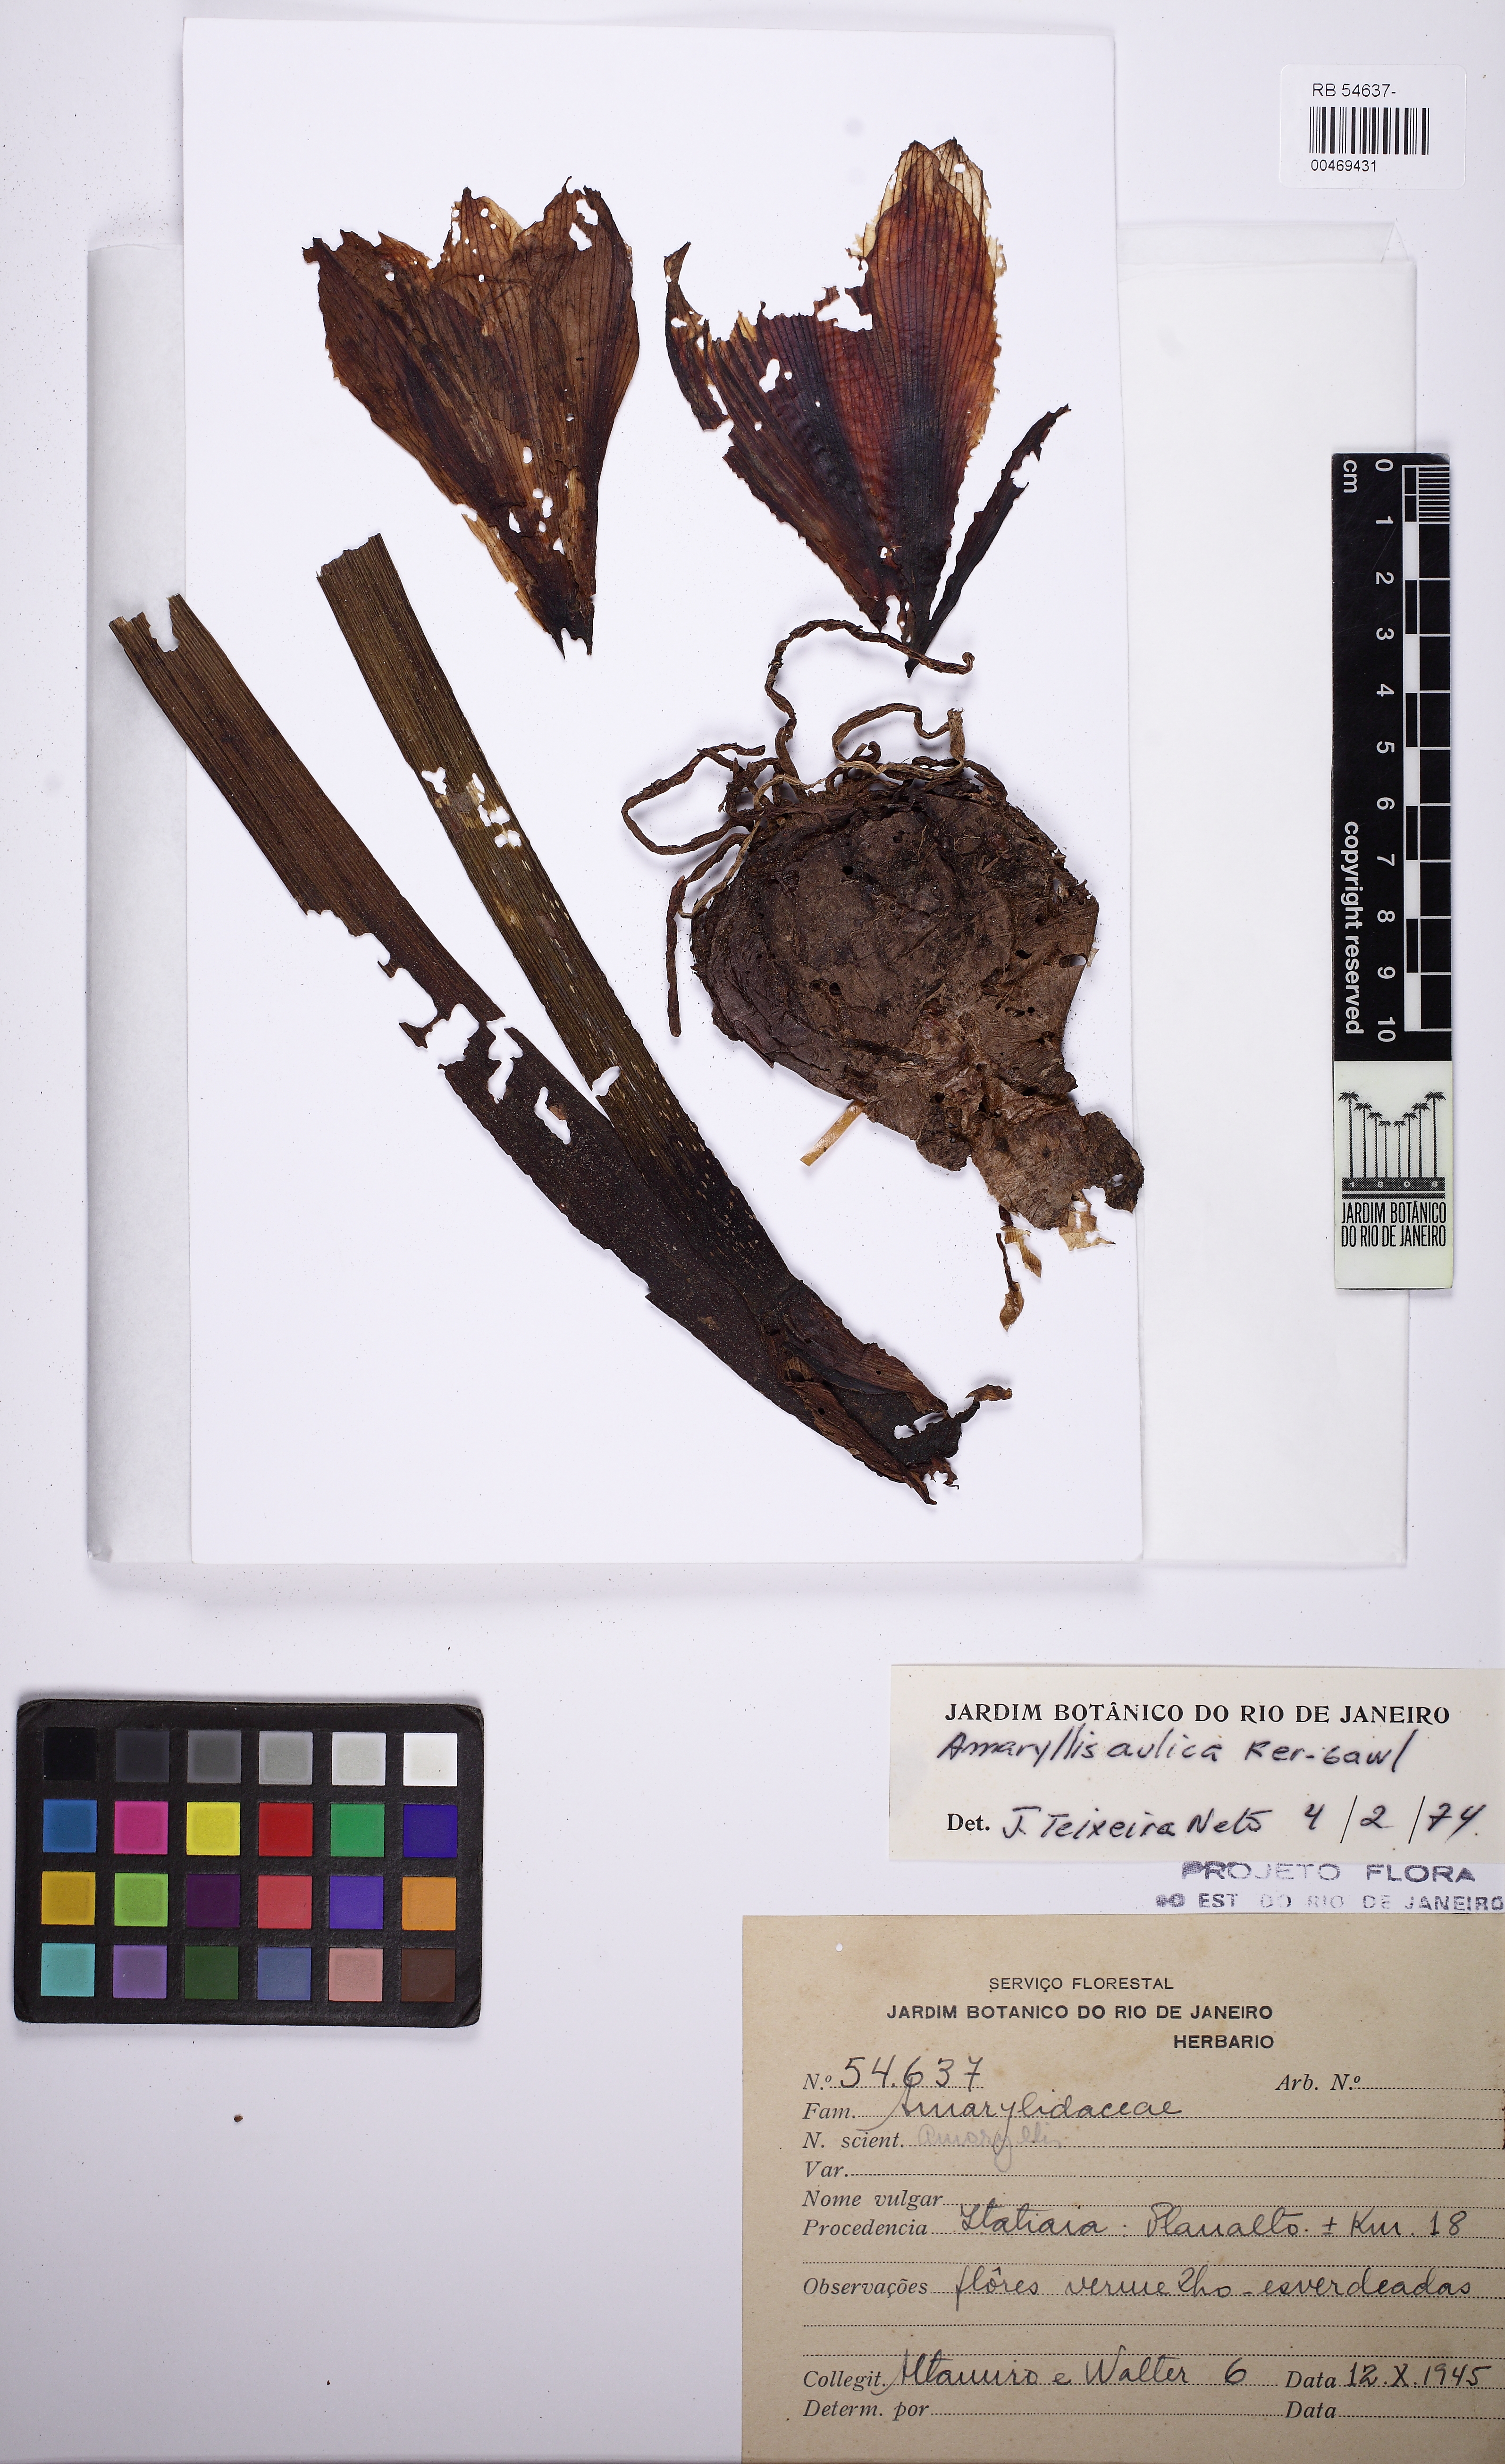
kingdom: Plantae
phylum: Tracheophyta
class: Liliopsida
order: Asparagales
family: Amaryllidaceae
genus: Hippeastrum
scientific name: Hippeastrum glaucescens
